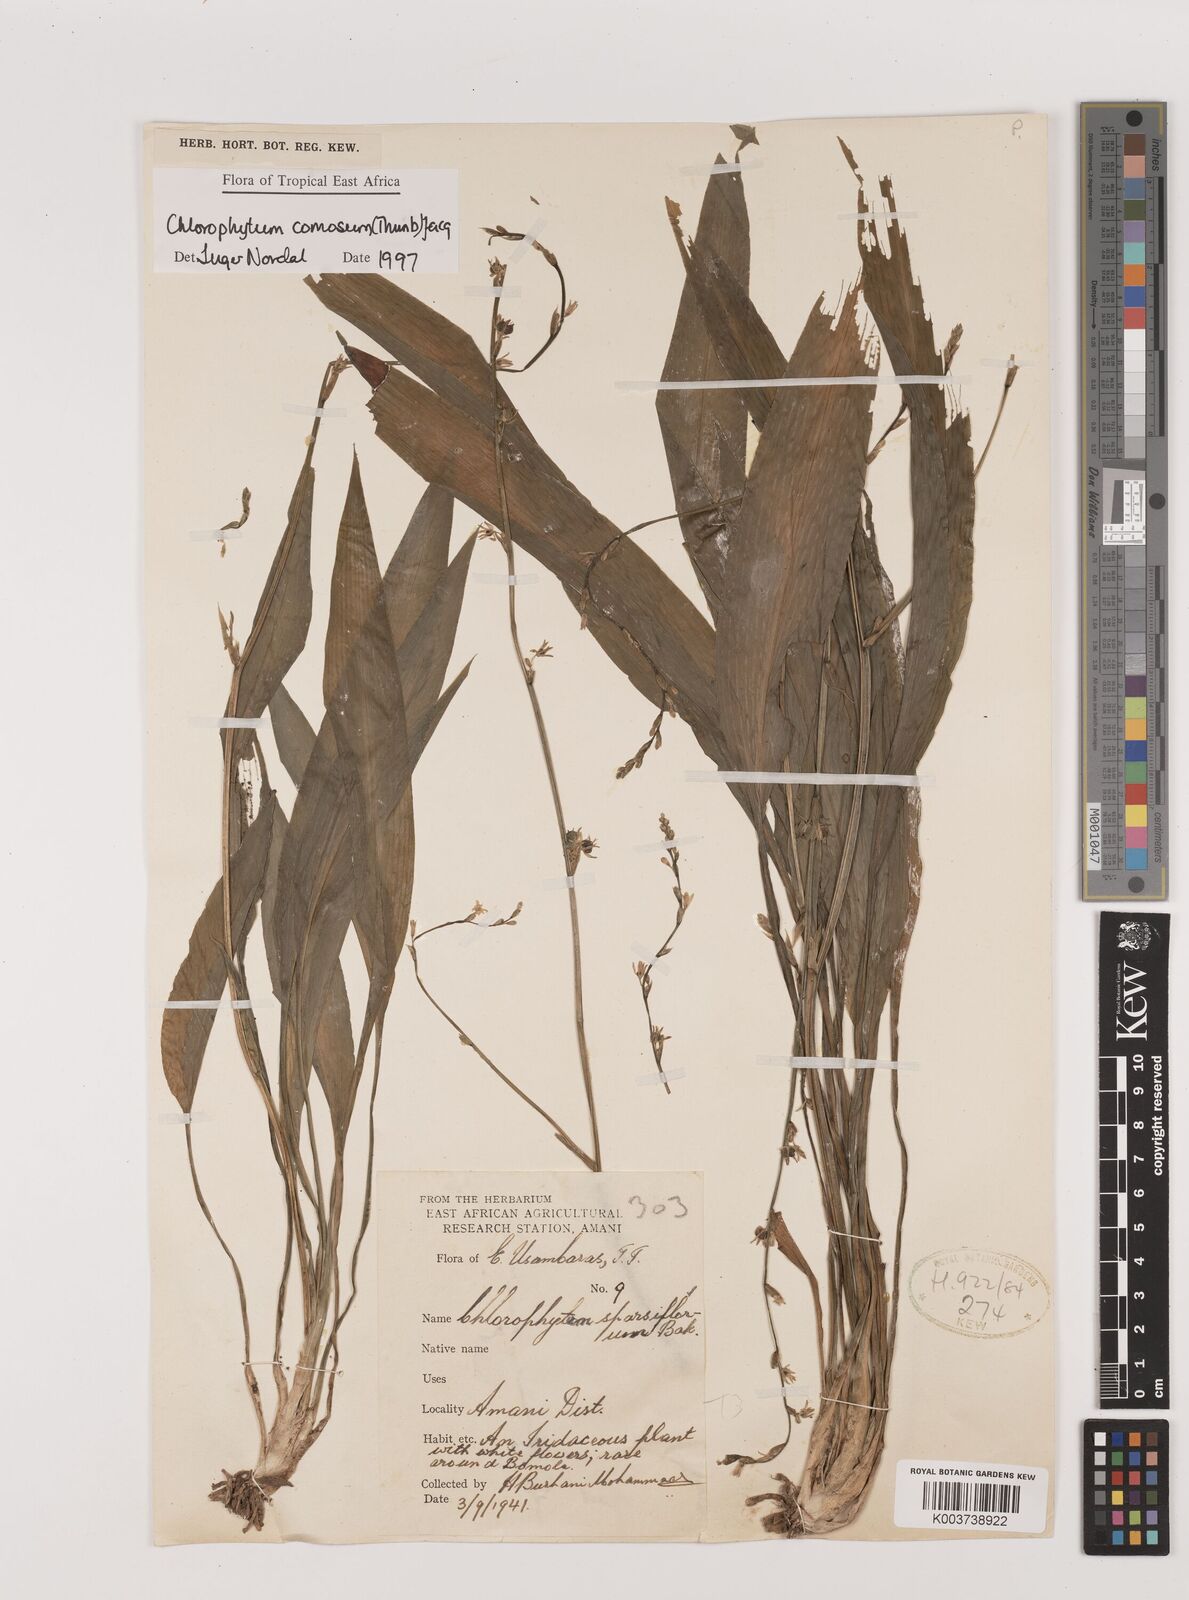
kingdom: Plantae
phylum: Tracheophyta
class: Liliopsida
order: Asparagales
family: Asparagaceae
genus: Chlorophytum
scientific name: Chlorophytum comosum
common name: Spider plant
